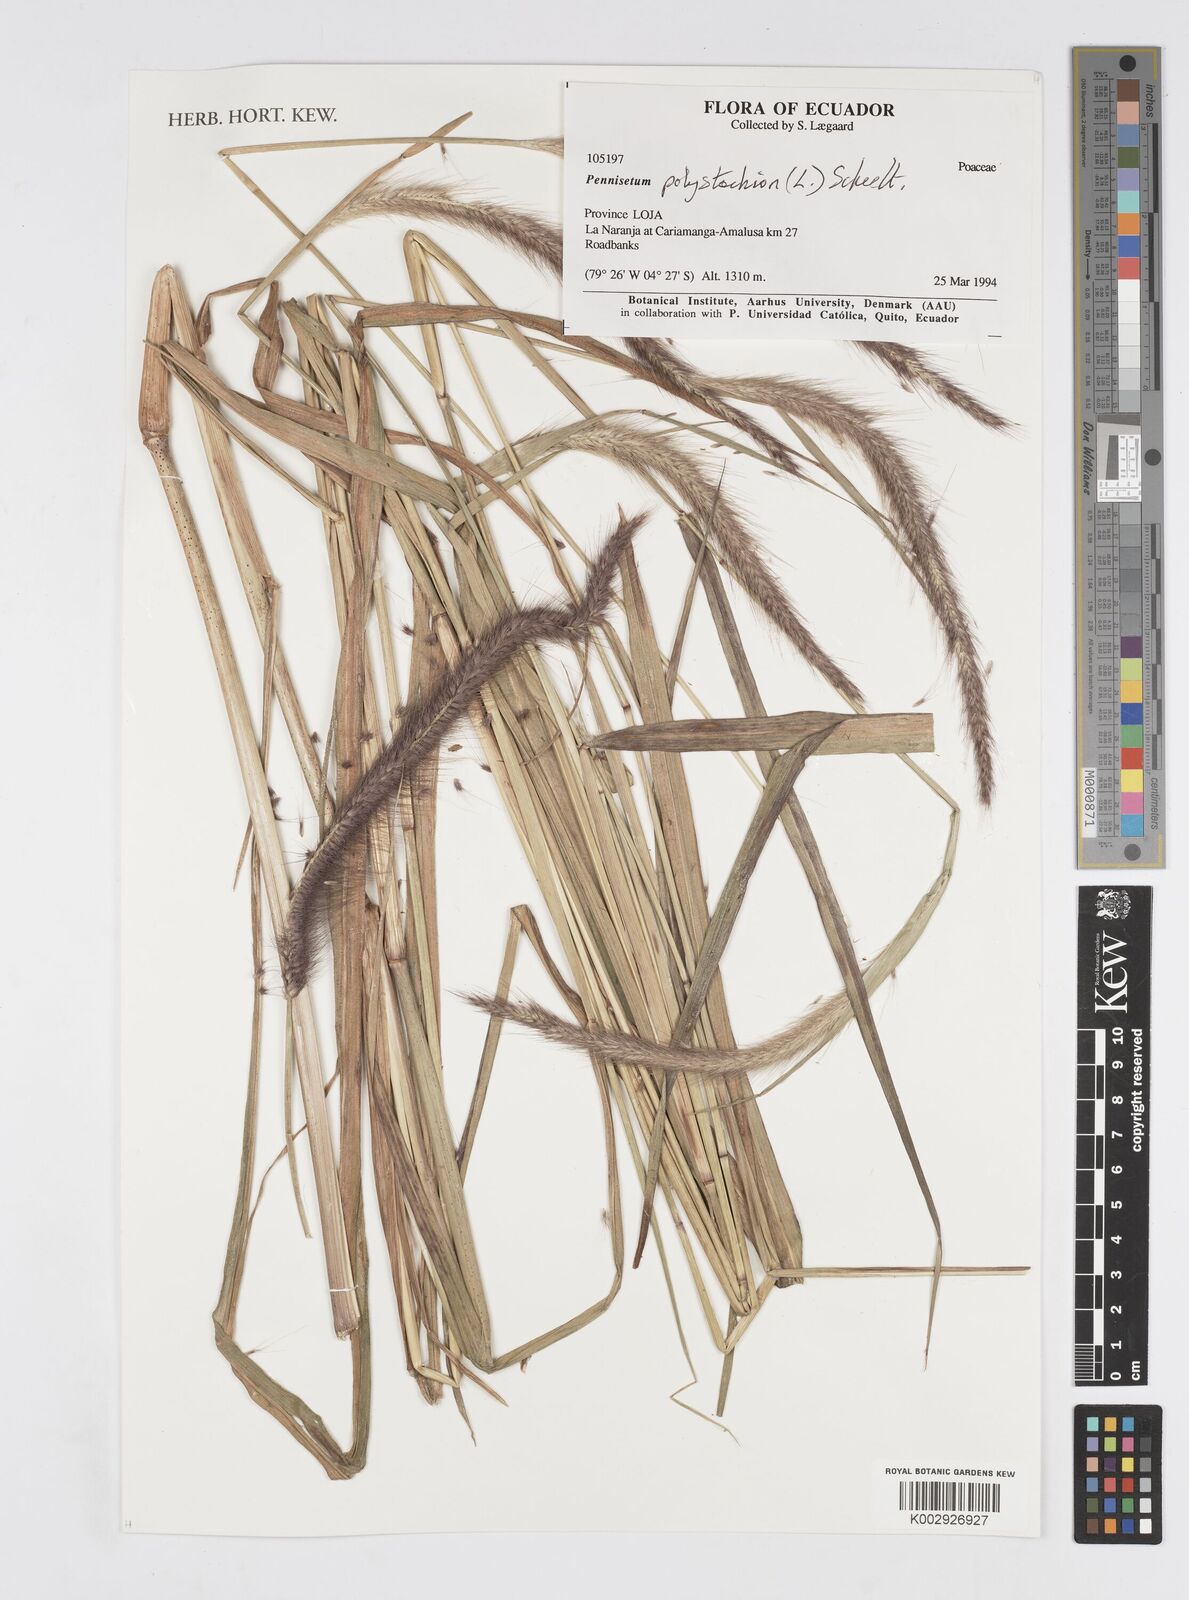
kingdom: Plantae
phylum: Tracheophyta
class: Liliopsida
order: Poales
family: Poaceae
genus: Setaria
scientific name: Setaria parviflora
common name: Knotroot bristle-grass
